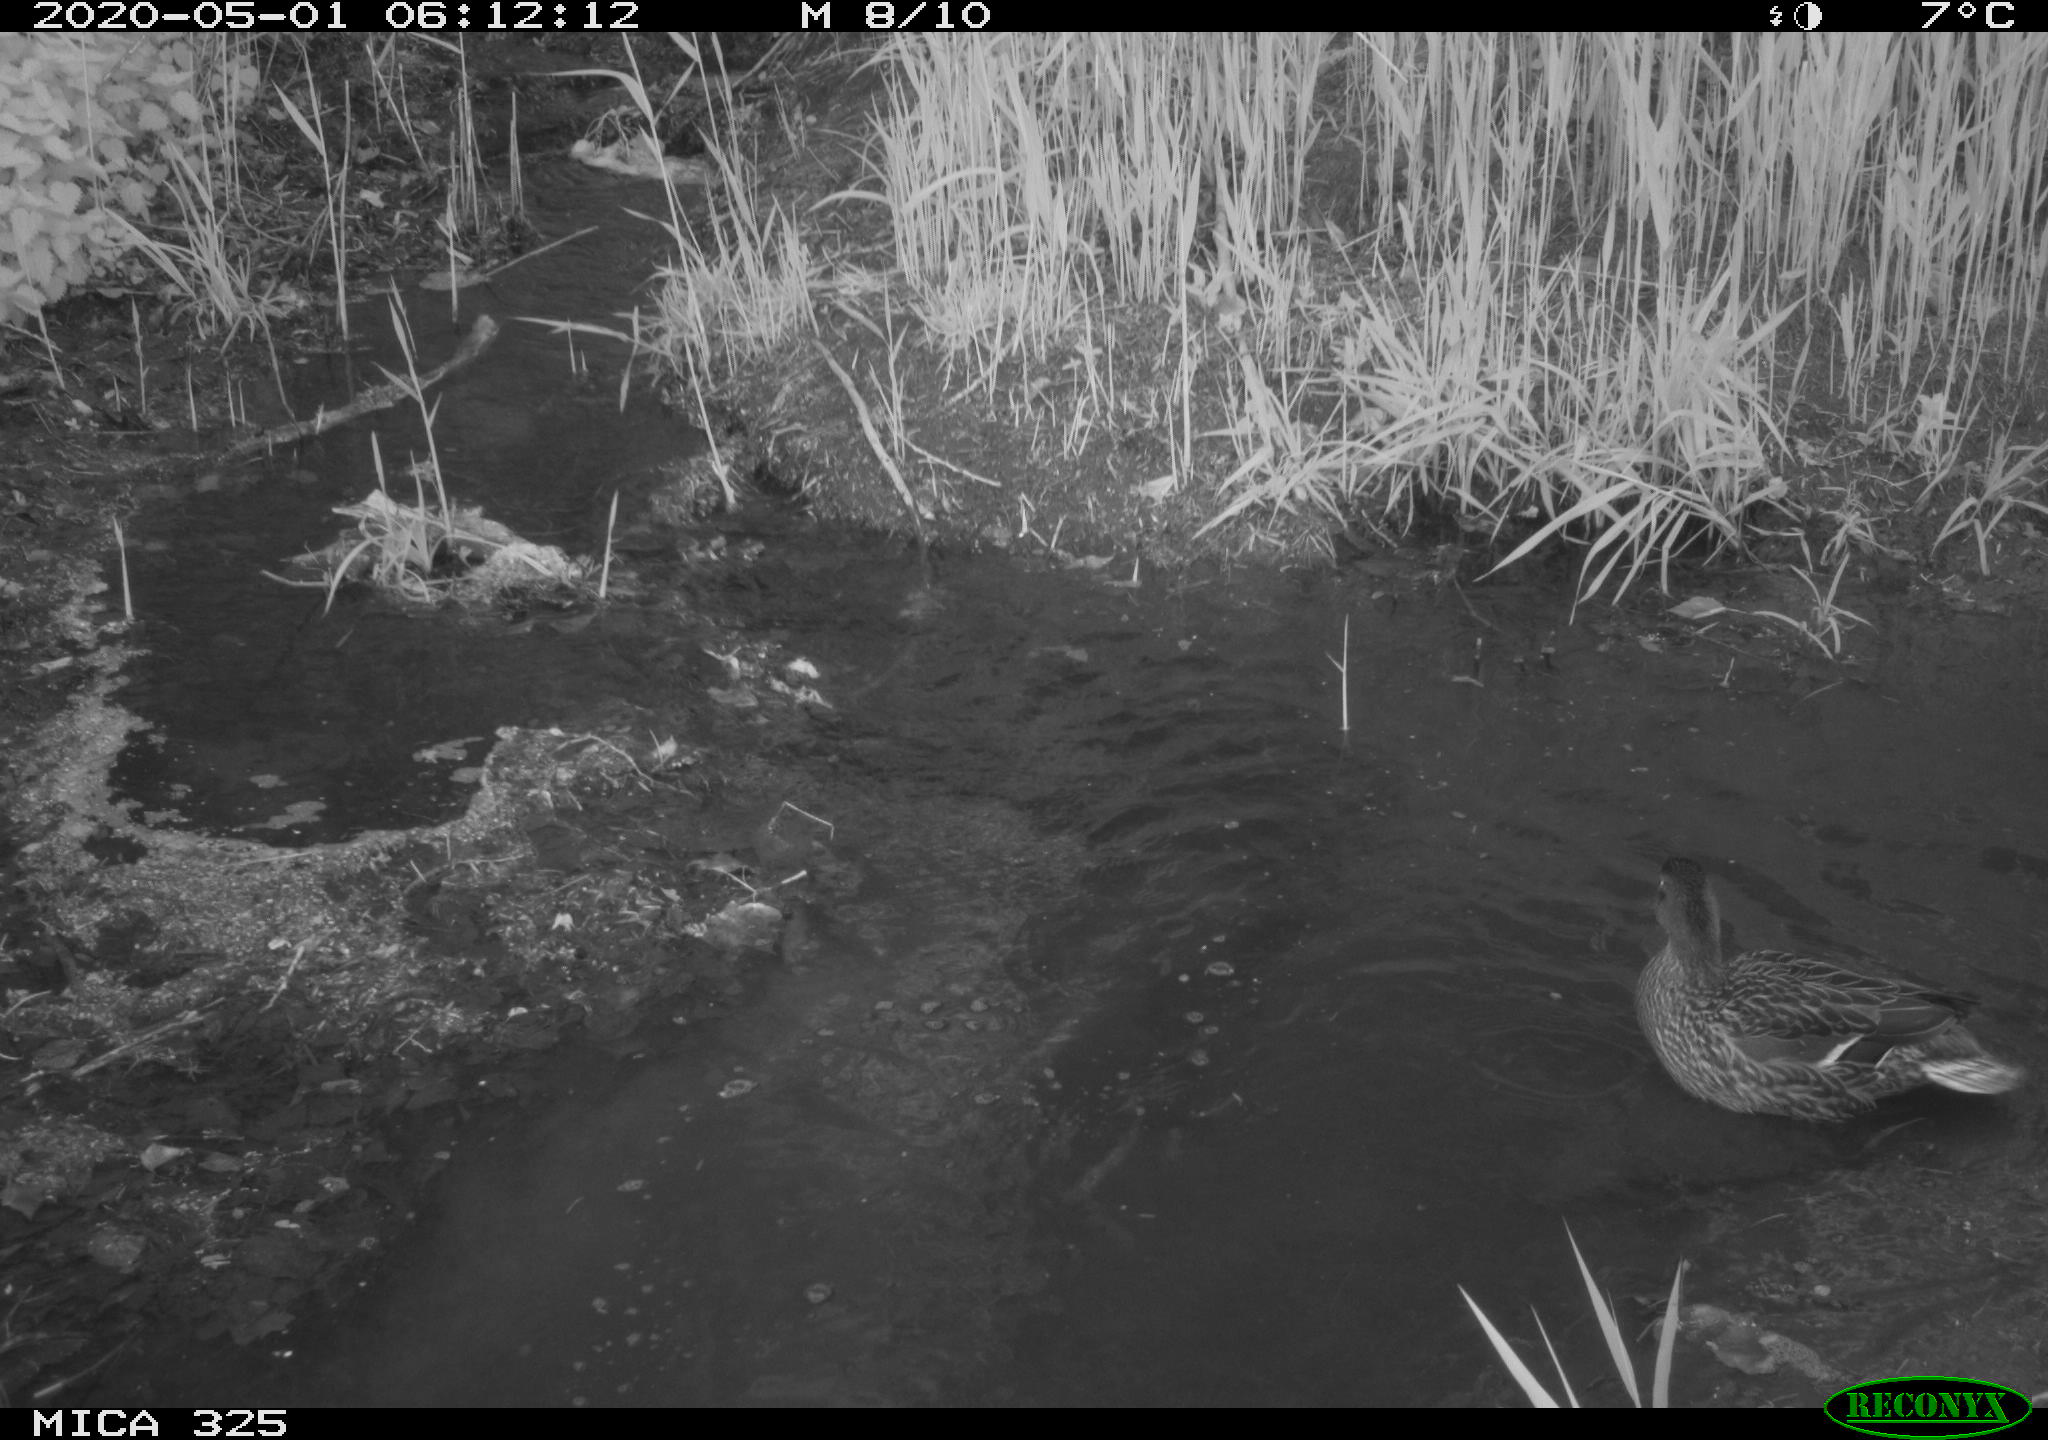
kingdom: Animalia
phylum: Chordata
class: Aves
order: Anseriformes
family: Anatidae
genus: Anas
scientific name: Anas platyrhynchos
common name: Mallard
